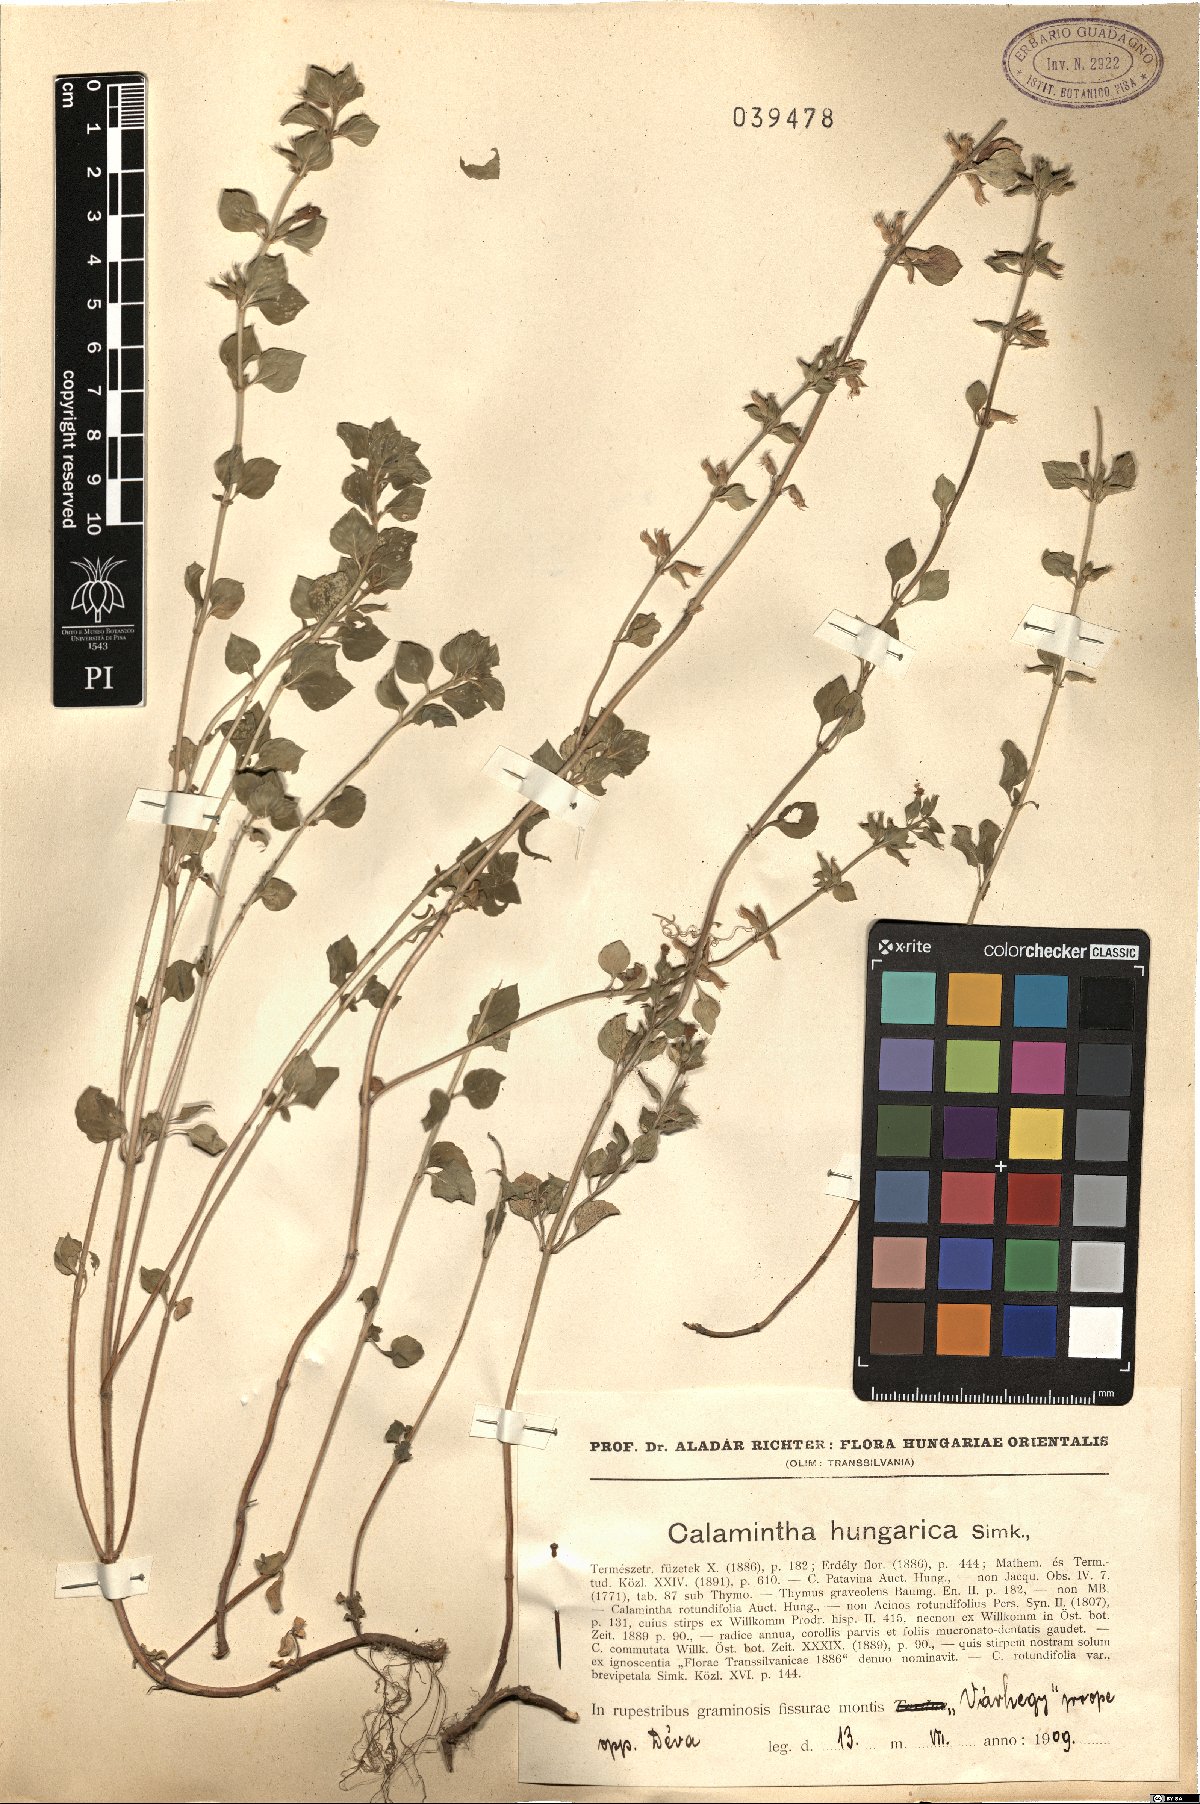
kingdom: Plantae
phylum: Tracheophyta
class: Magnoliopsida
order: Lamiales
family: Lamiaceae
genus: Clinopodium
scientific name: Clinopodium alpinum
